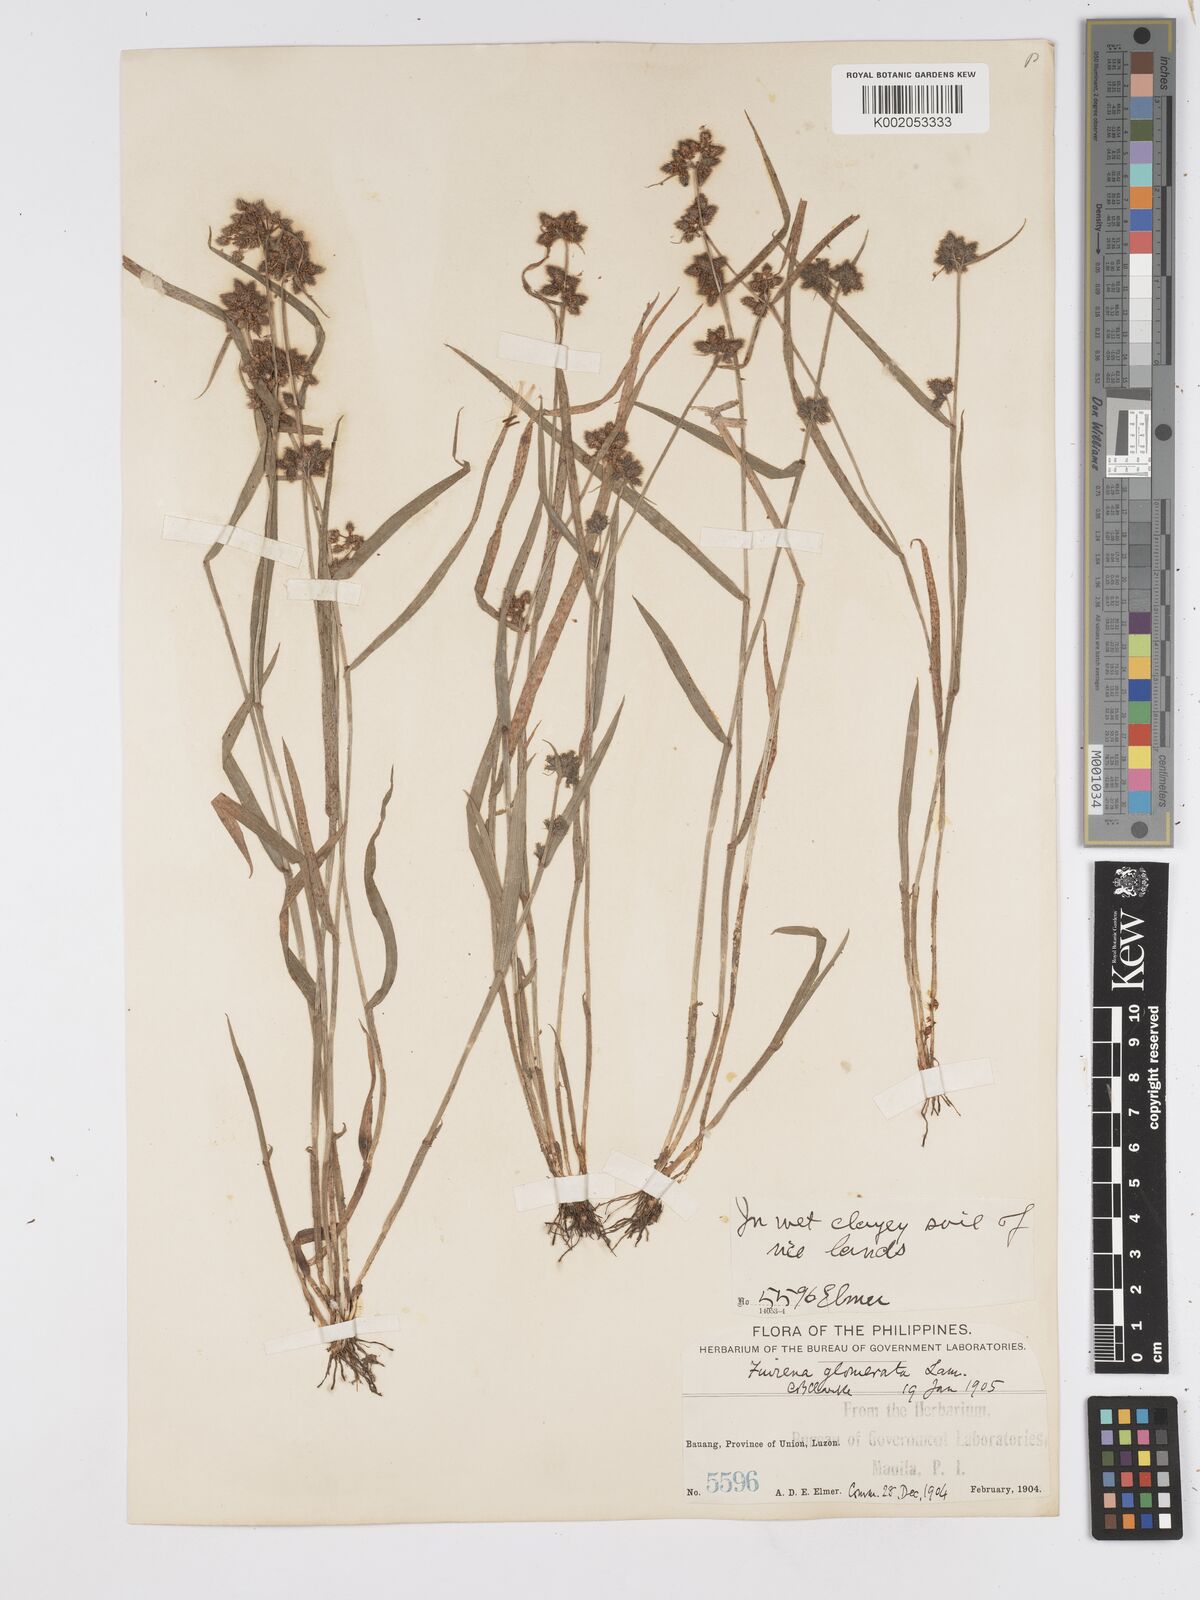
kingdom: Plantae
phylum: Tracheophyta
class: Liliopsida
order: Poales
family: Cyperaceae
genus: Fuirena
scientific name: Fuirena ciliaris
